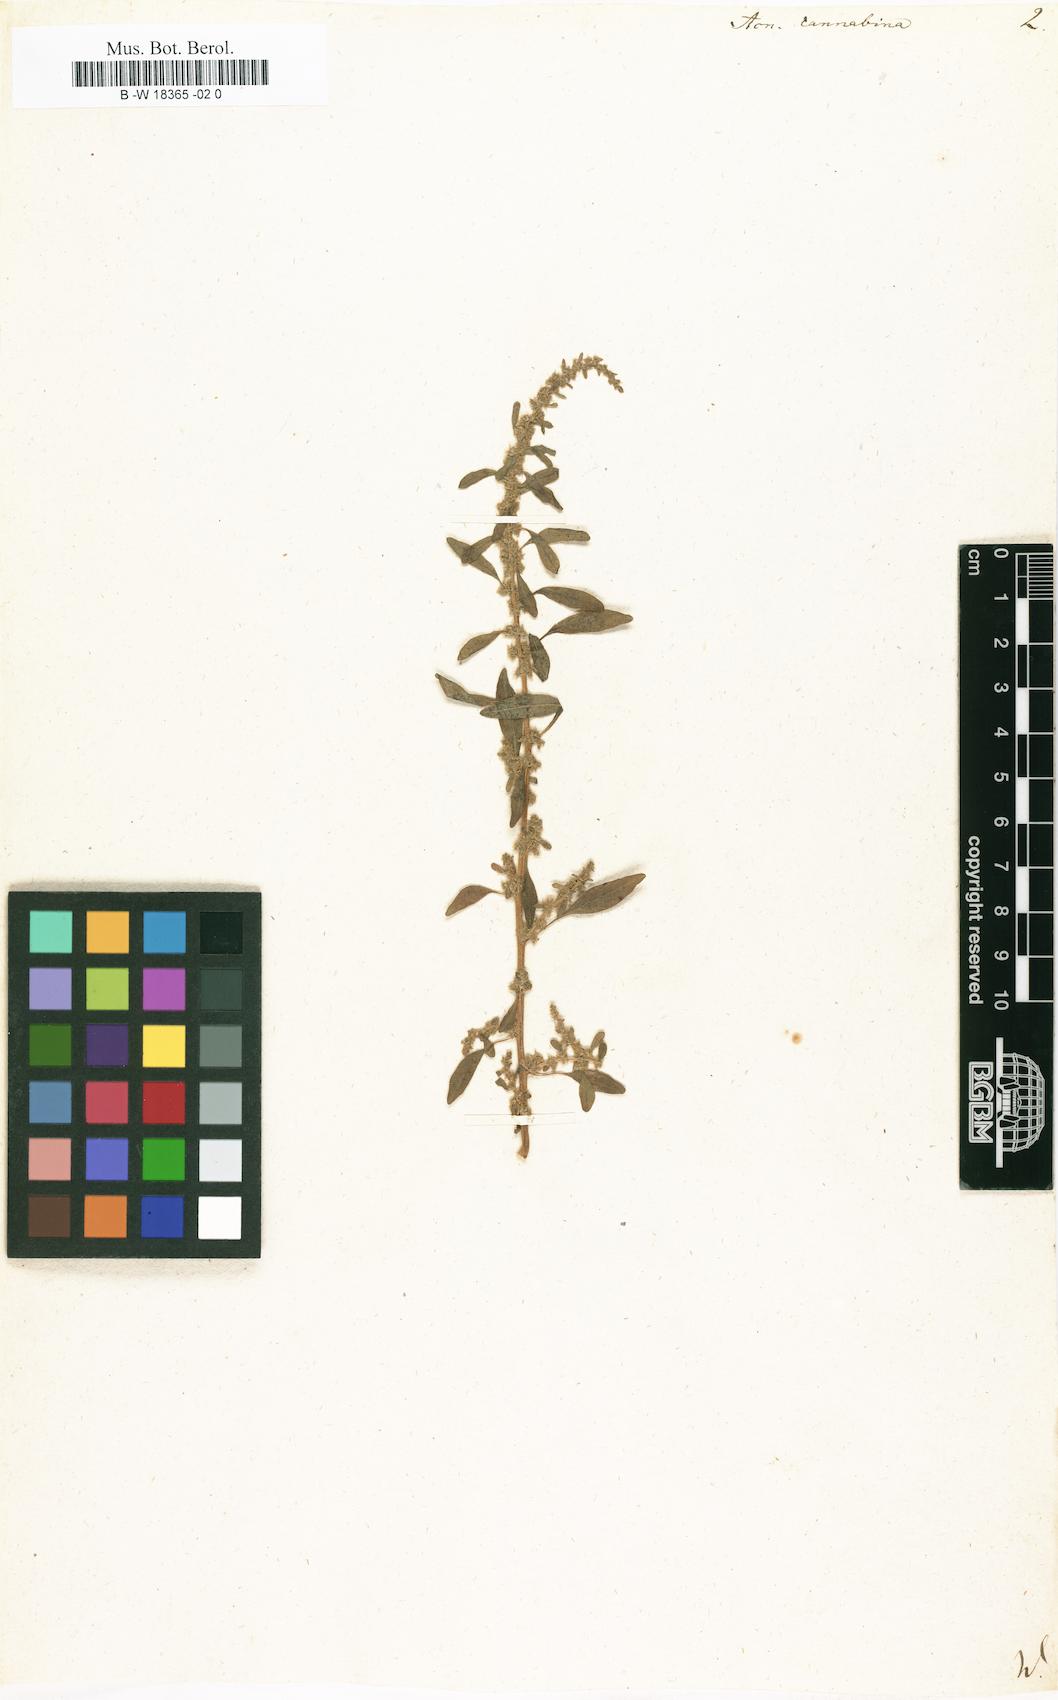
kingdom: Plantae
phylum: Tracheophyta
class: Magnoliopsida
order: Caryophyllales
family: Amaranthaceae
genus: Amaranthus
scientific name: Amaranthus cannabinus
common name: Salt-marsh water-hemp
